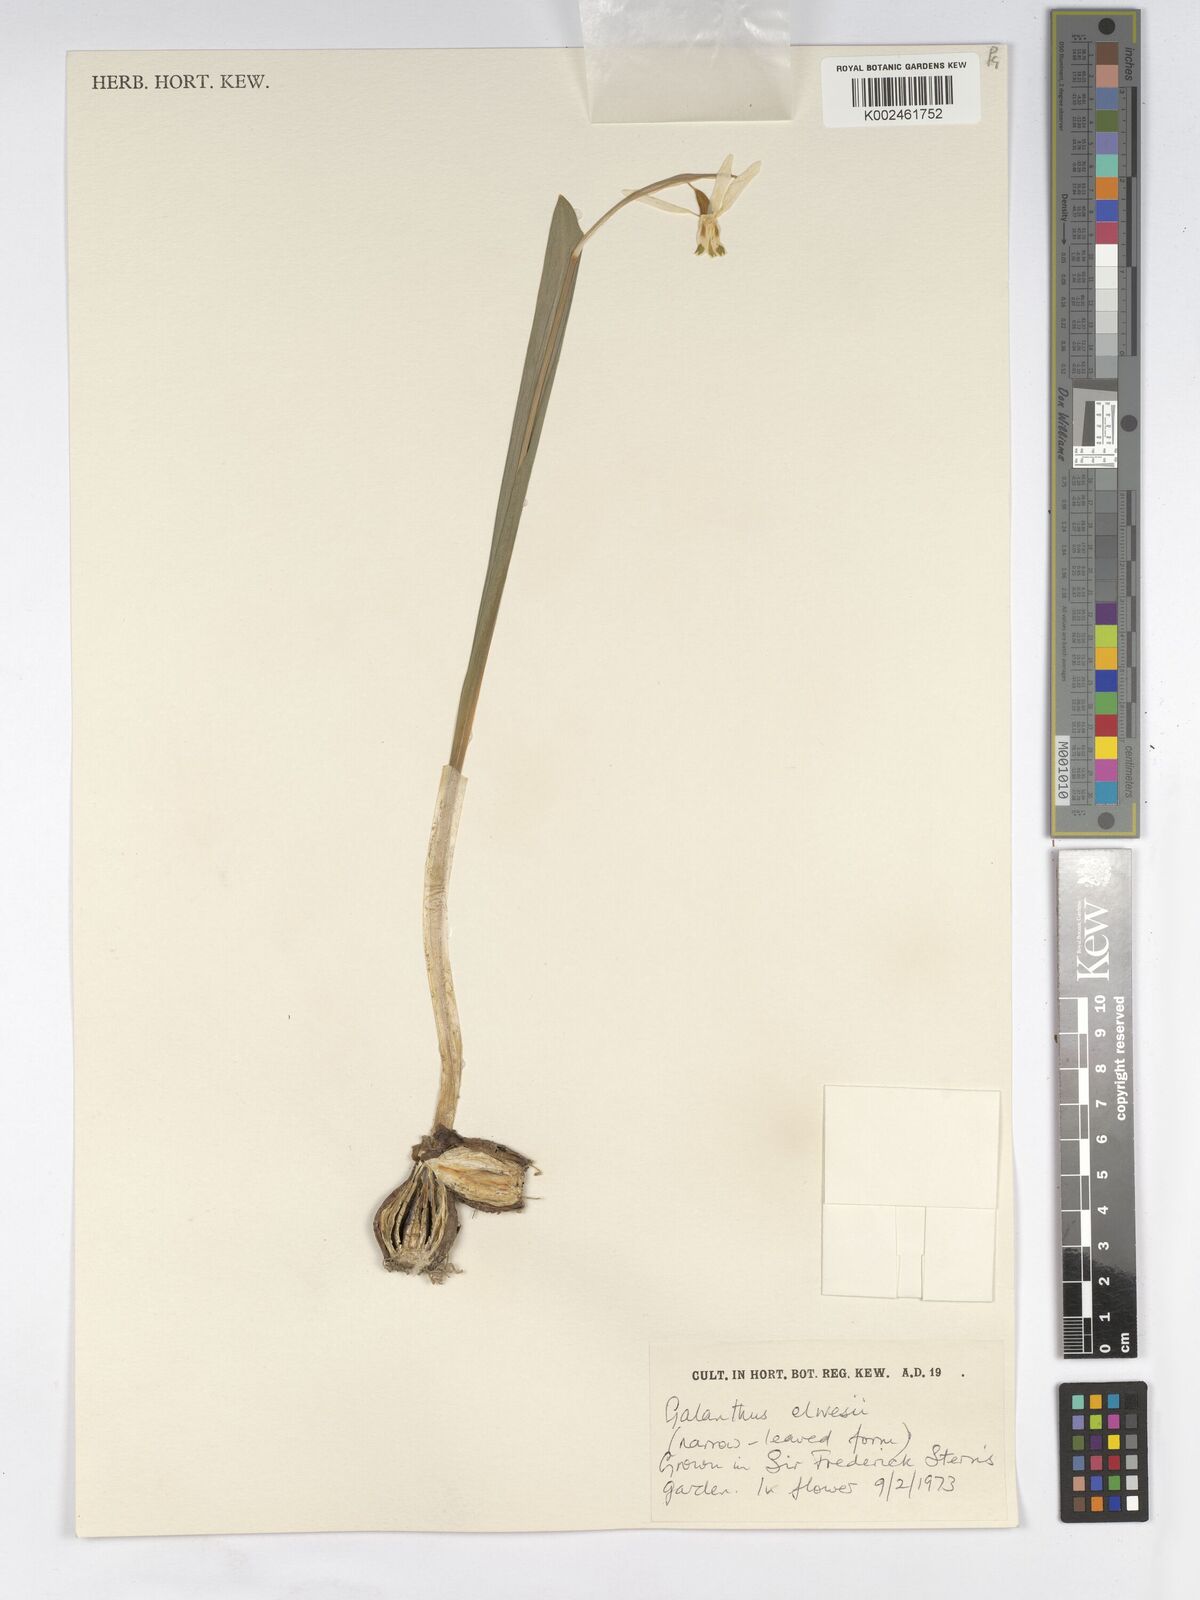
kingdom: Plantae
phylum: Tracheophyta
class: Liliopsida
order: Asparagales
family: Amaryllidaceae
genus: Galanthus
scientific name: Galanthus elwesii
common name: Greater snowdrop
